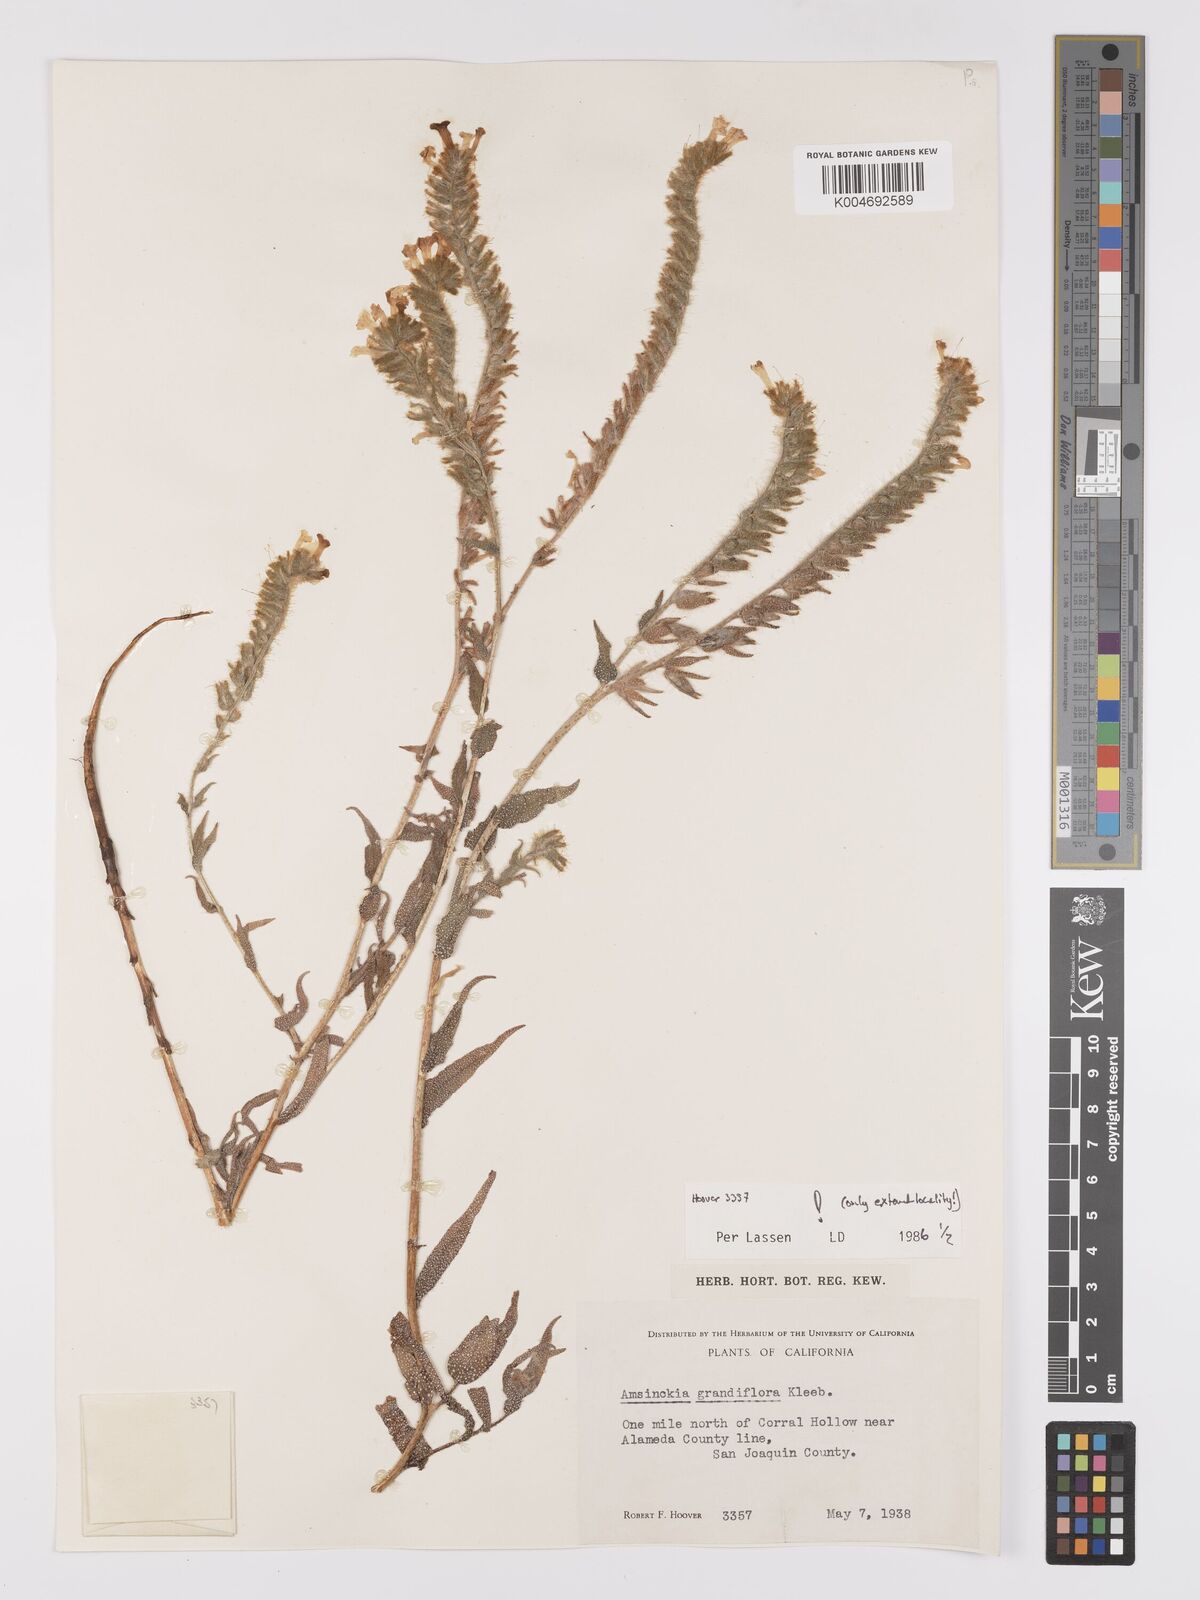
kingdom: Plantae
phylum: Tracheophyta
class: Magnoliopsida
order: Boraginales
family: Boraginaceae
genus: Amsinckia
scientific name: Amsinckia grandiflora
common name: Large-flower fiddleneck
